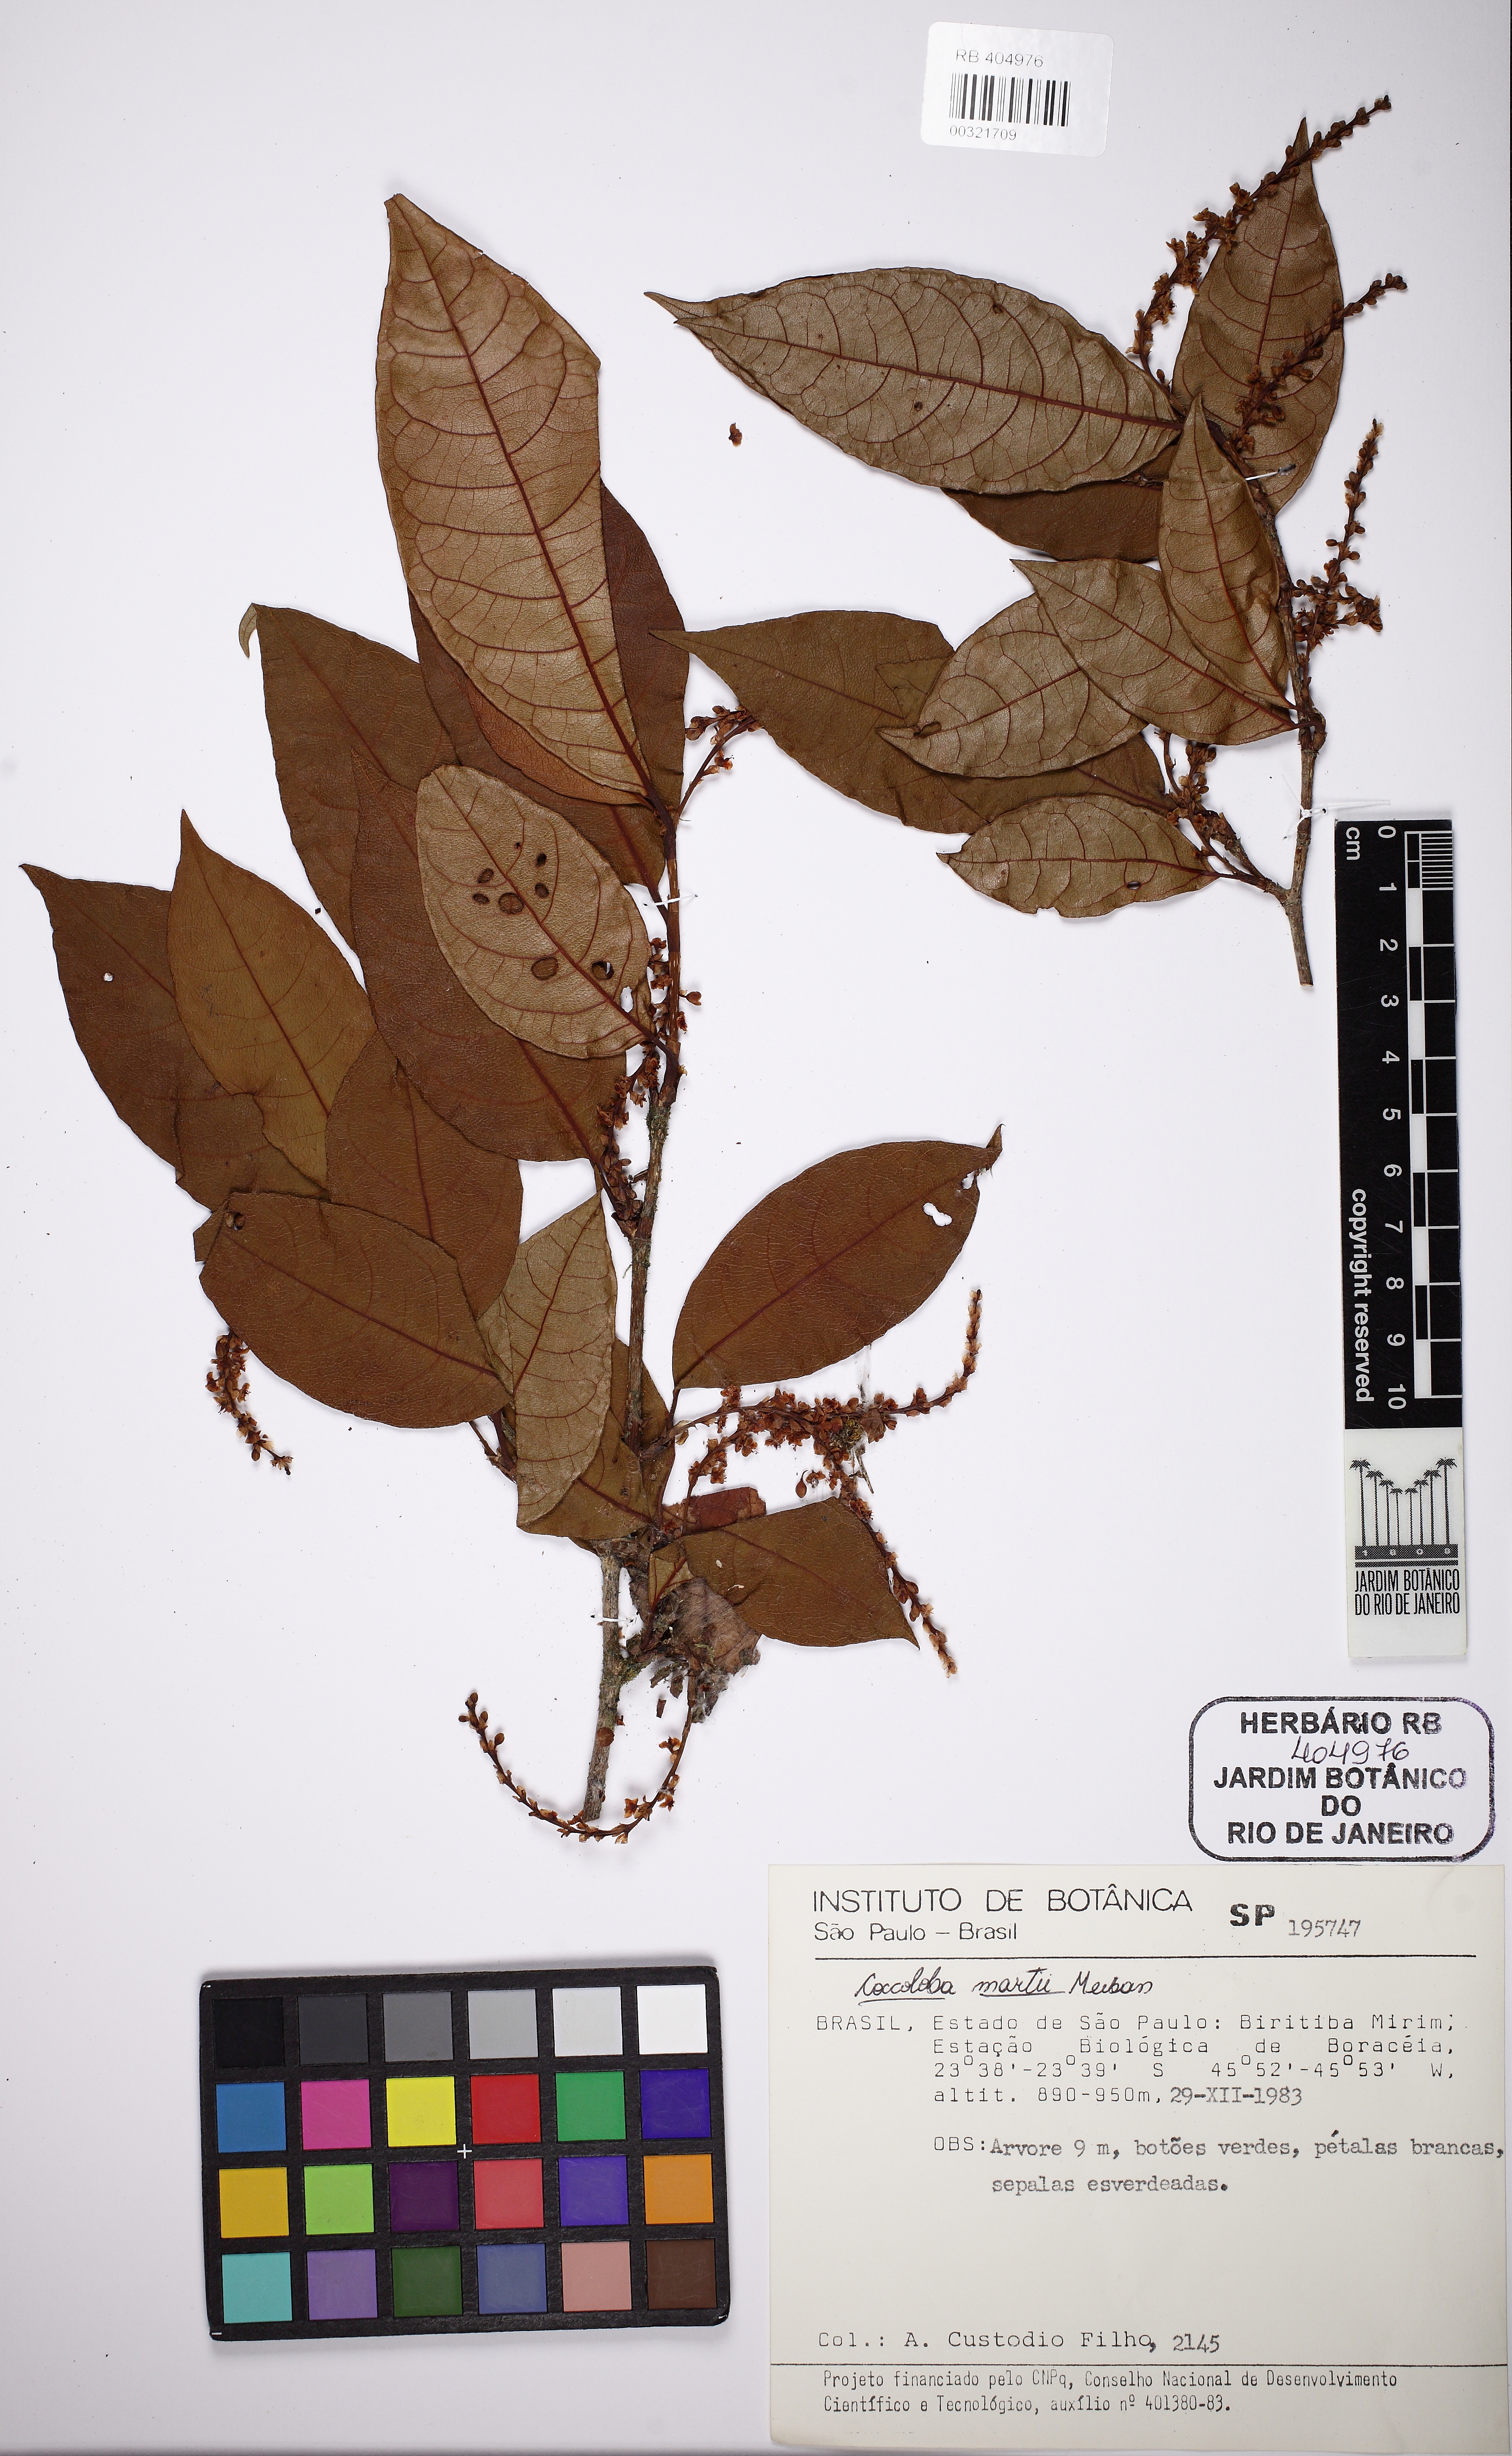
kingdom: Plantae
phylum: Tracheophyta
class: Magnoliopsida
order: Caryophyllales
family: Polygonaceae
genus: Coccoloba
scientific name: Coccoloba peltata
